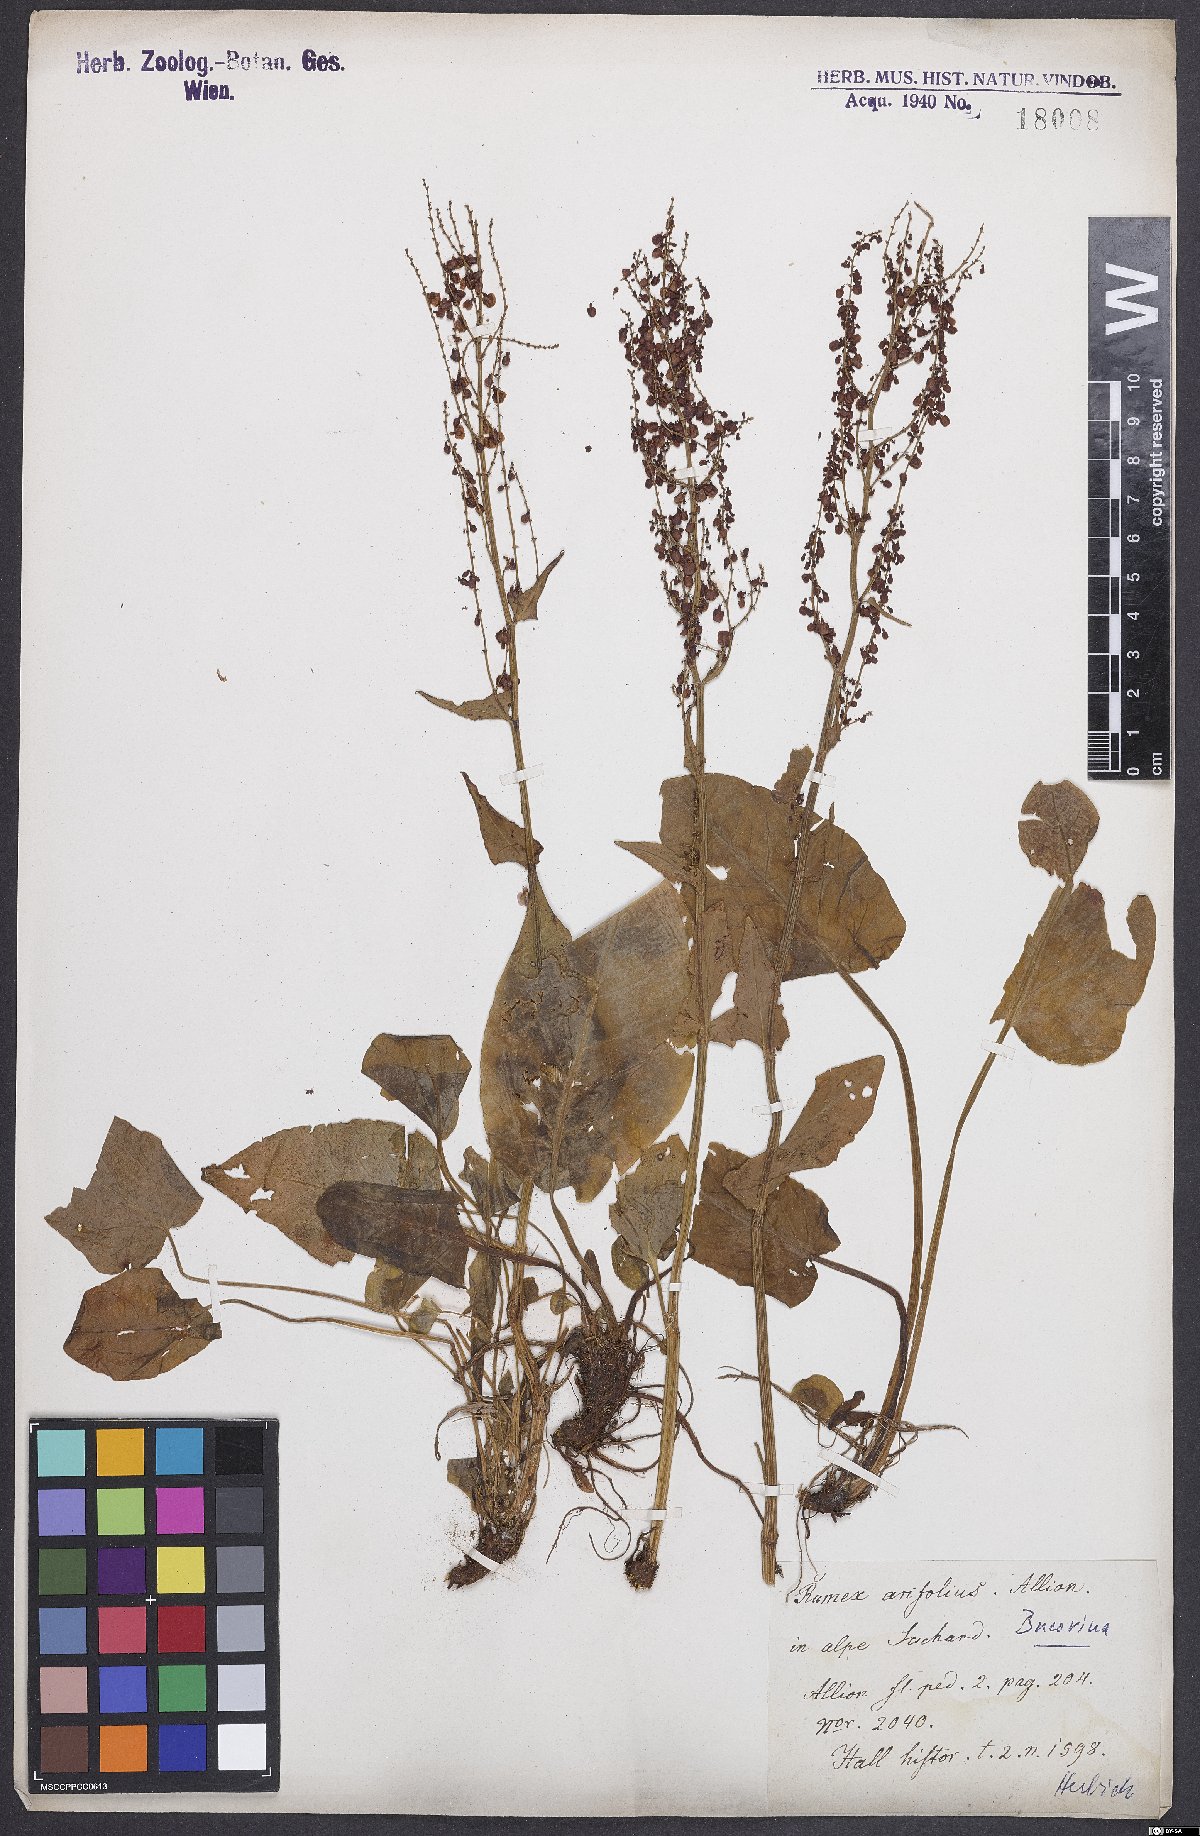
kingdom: Plantae
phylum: Tracheophyta
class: Magnoliopsida
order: Caryophyllales
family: Polygonaceae
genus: Rumex
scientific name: Rumex arifolius
